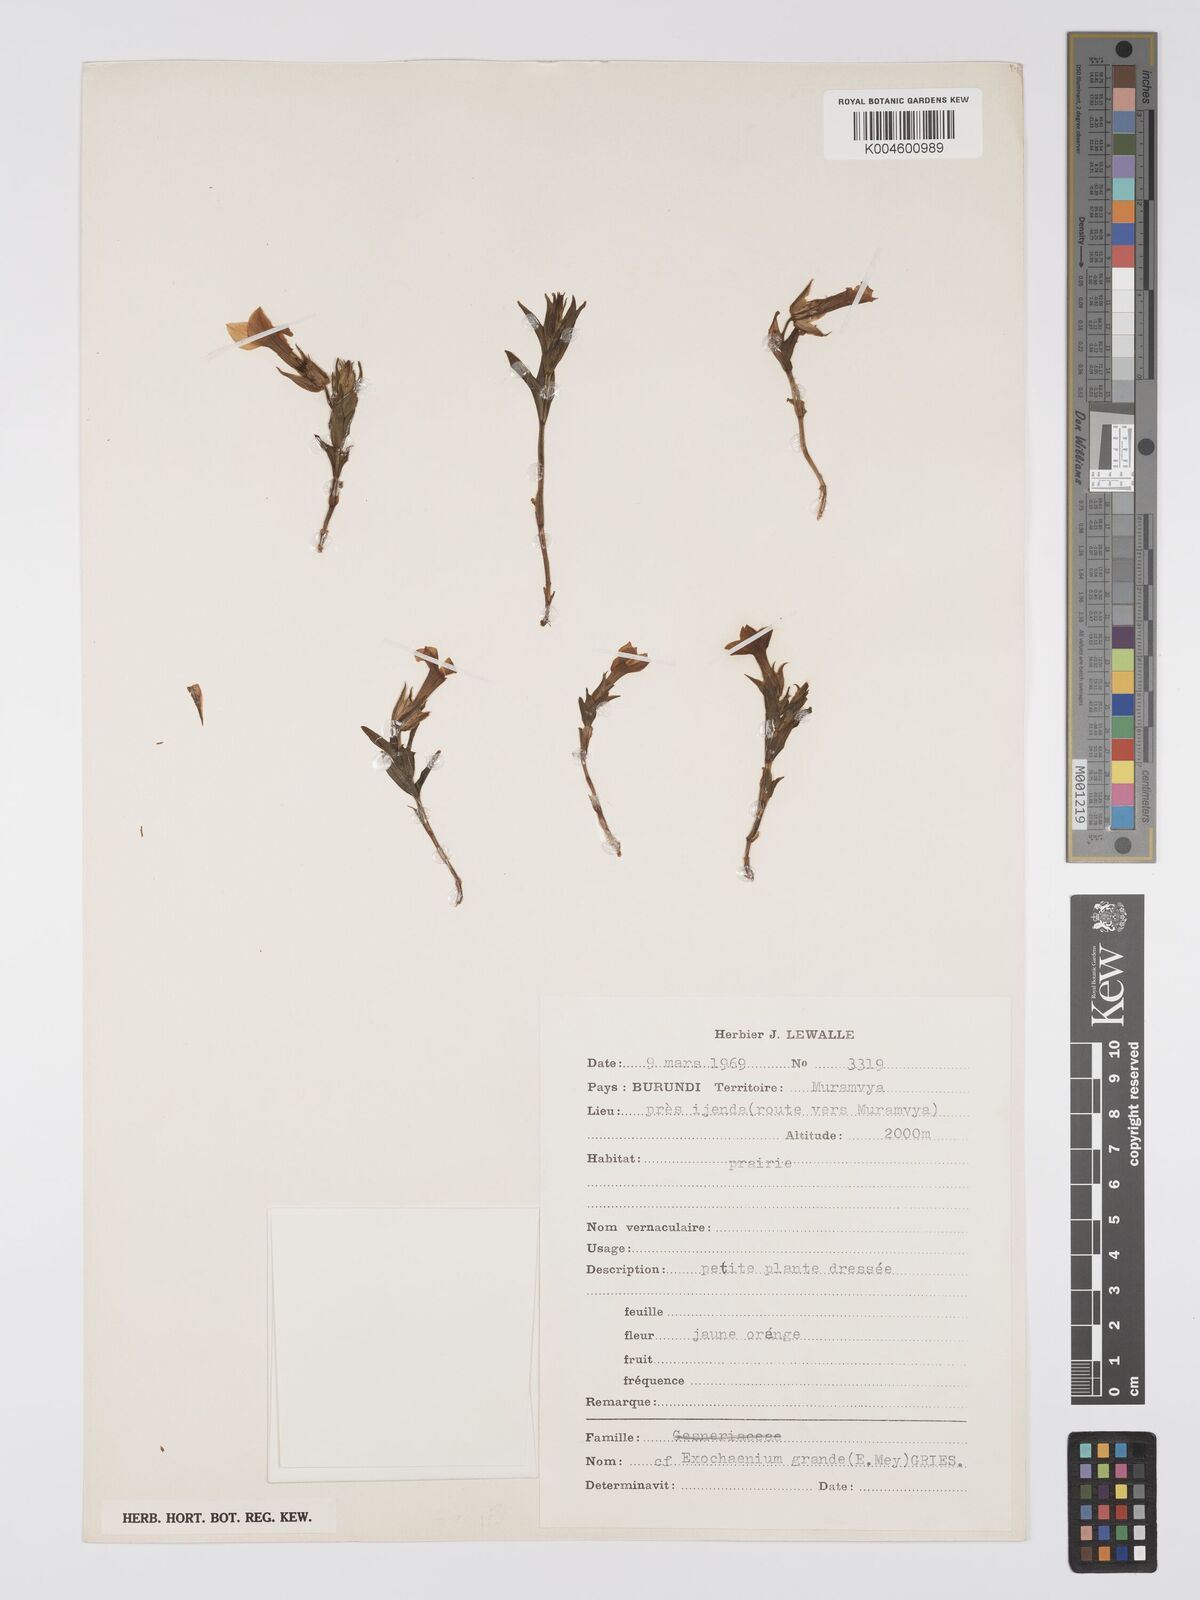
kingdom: Plantae
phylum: Tracheophyta
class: Magnoliopsida
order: Gentianales
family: Gentianaceae
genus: Exochaenium
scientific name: Exochaenium grande
